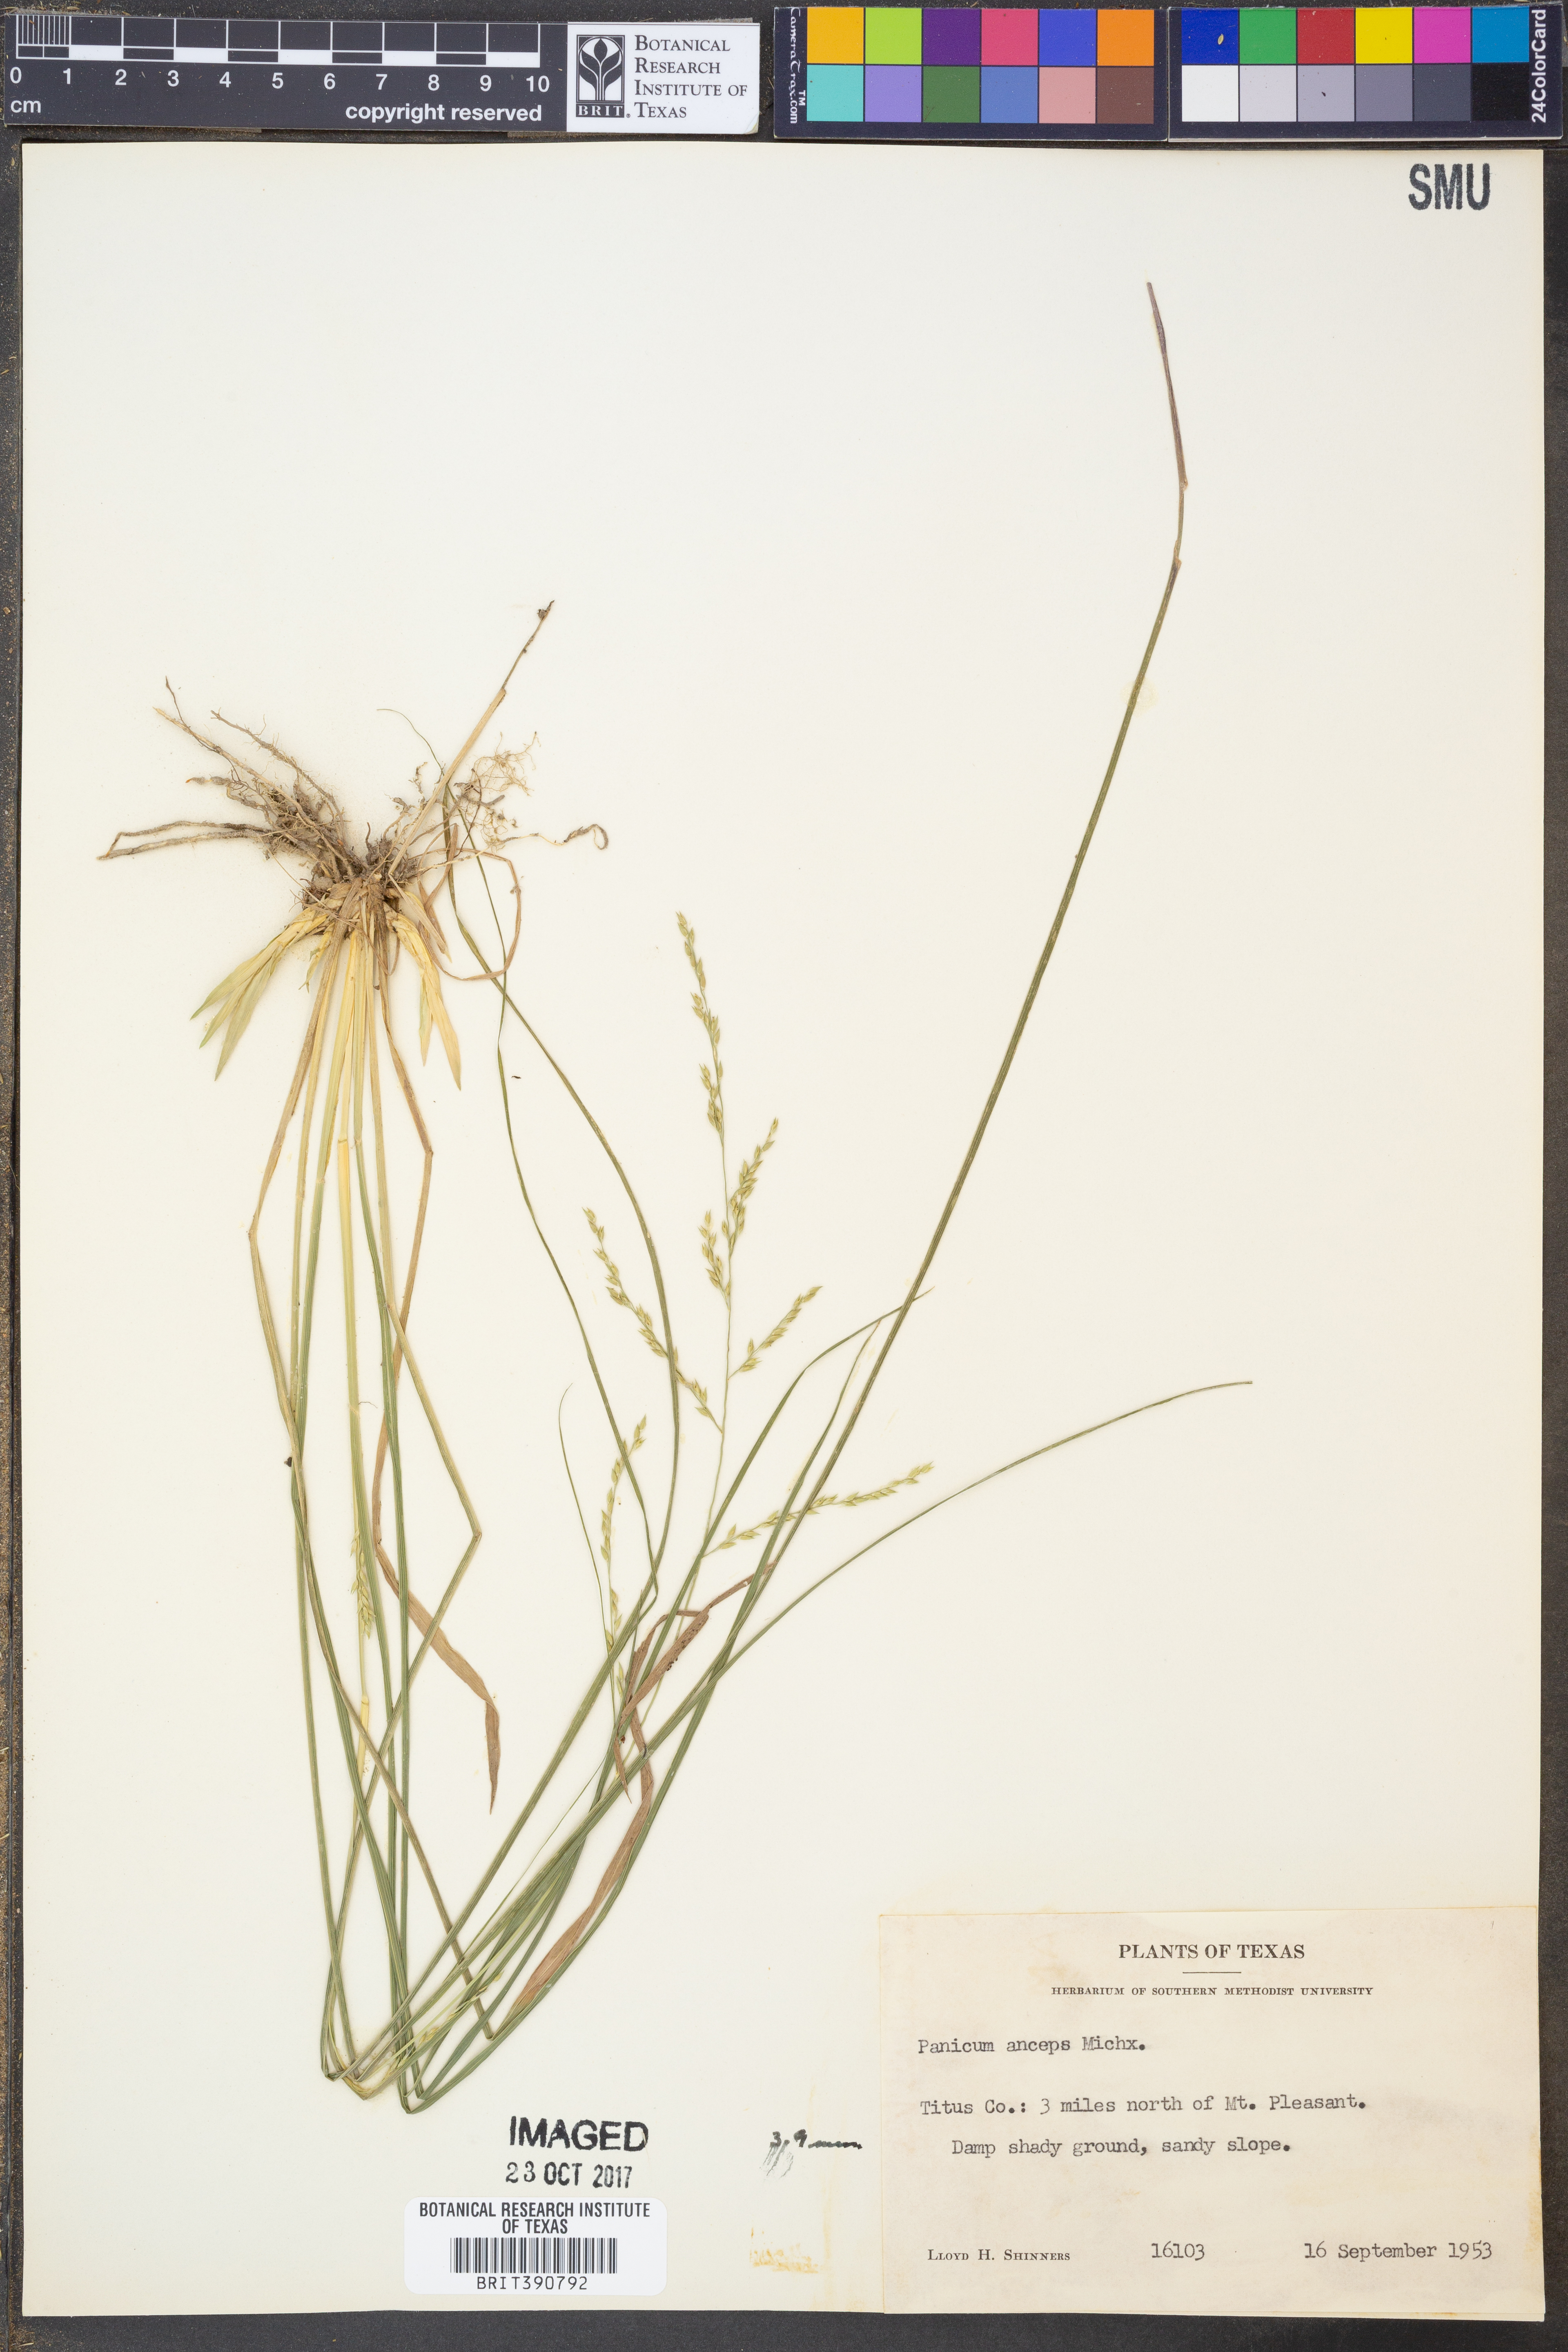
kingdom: Plantae
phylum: Tracheophyta
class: Liliopsida
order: Poales
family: Poaceae
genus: Coleataenia
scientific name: Coleataenia anceps
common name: Beaked panic grass
